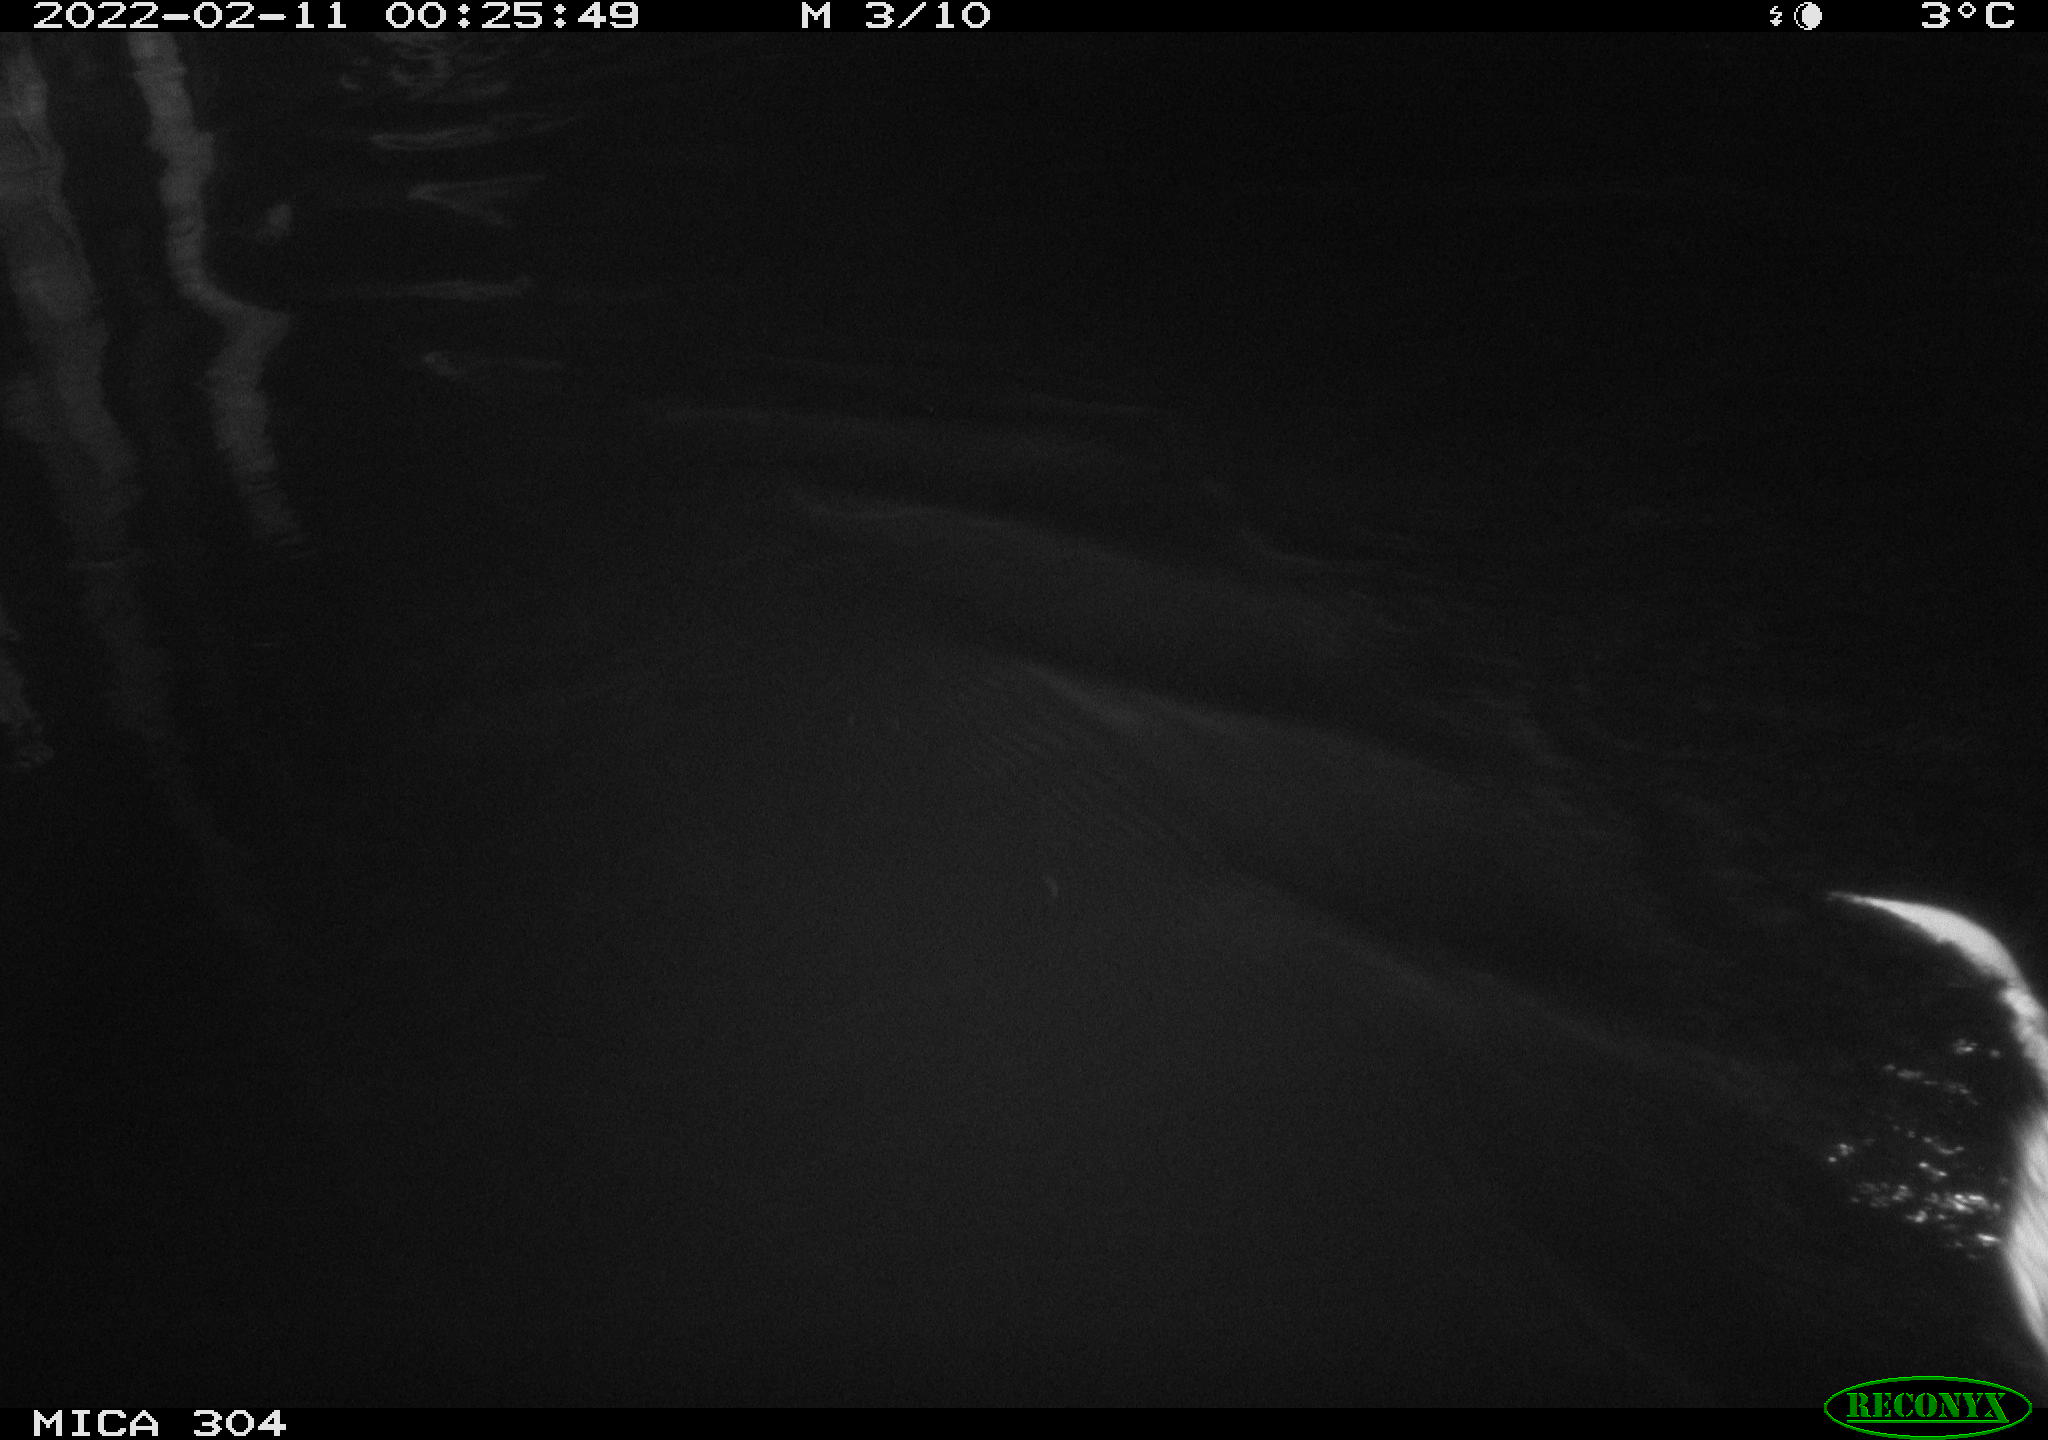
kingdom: Animalia
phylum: Chordata
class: Mammalia
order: Rodentia
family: Cricetidae
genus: Ondatra
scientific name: Ondatra zibethicus
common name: Muskrat
